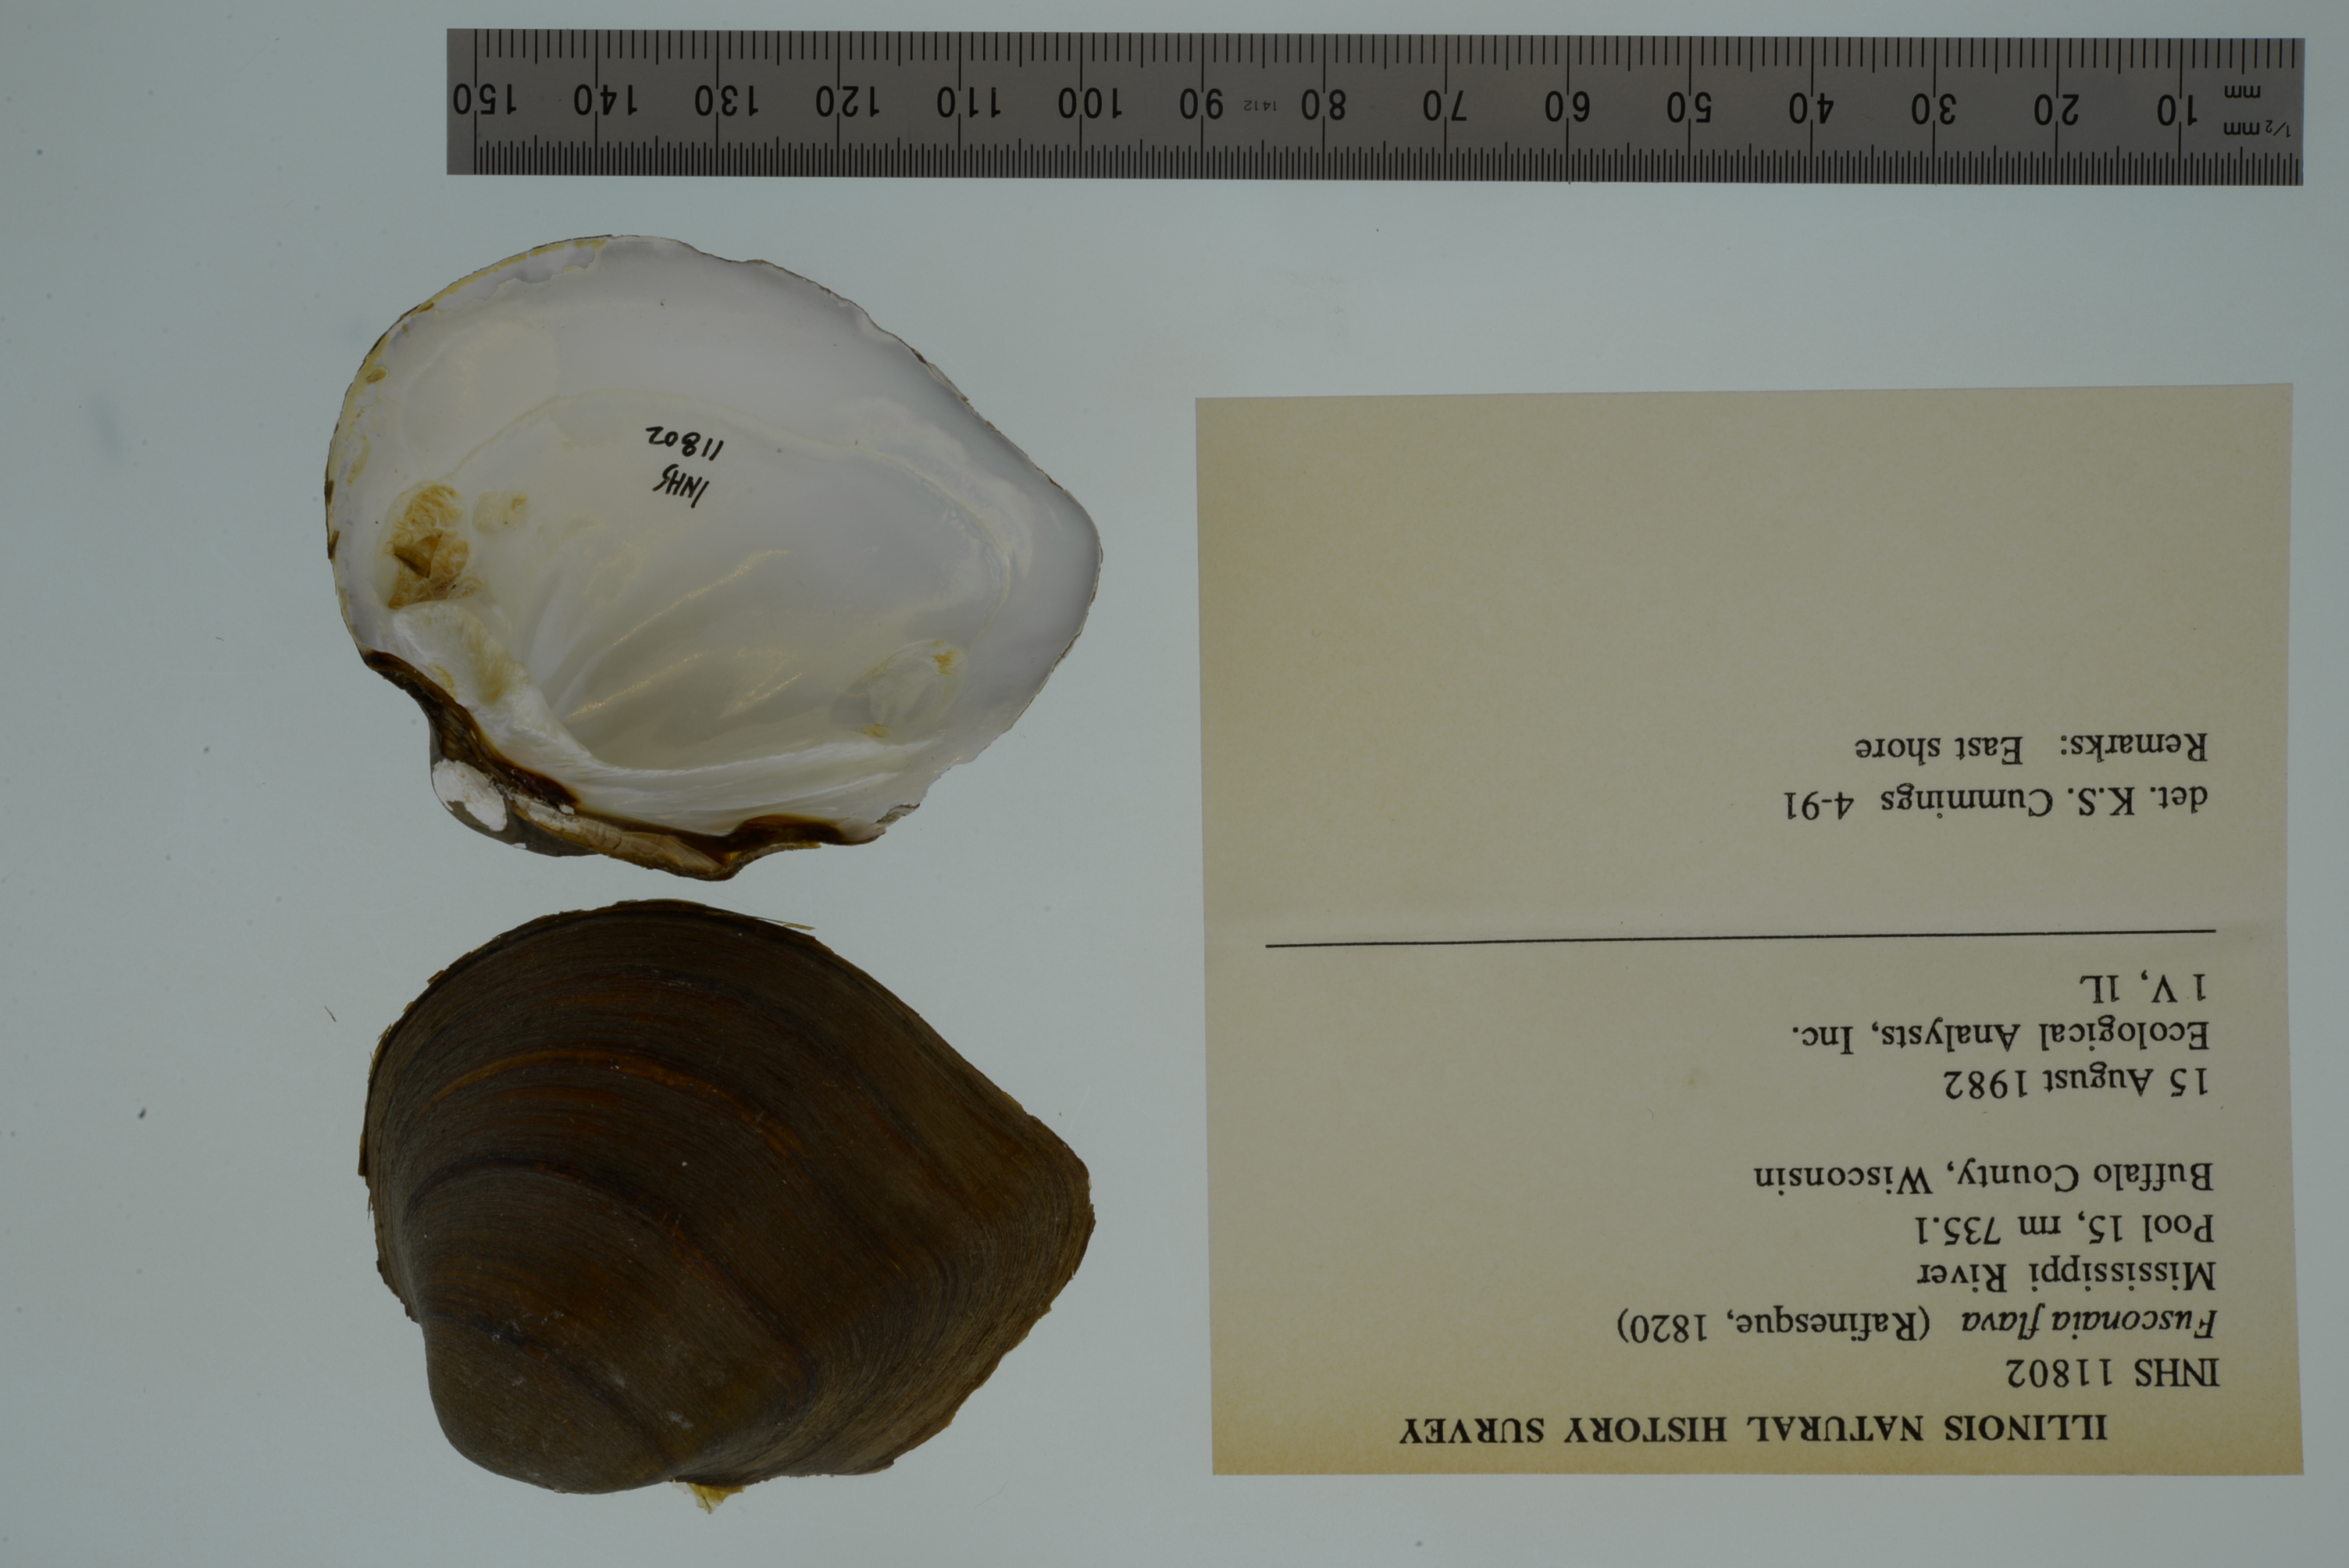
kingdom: Animalia
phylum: Mollusca
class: Bivalvia
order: Unionida
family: Unionidae
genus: Fusconaia
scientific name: Fusconaia flava
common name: Wabash pigtoe
